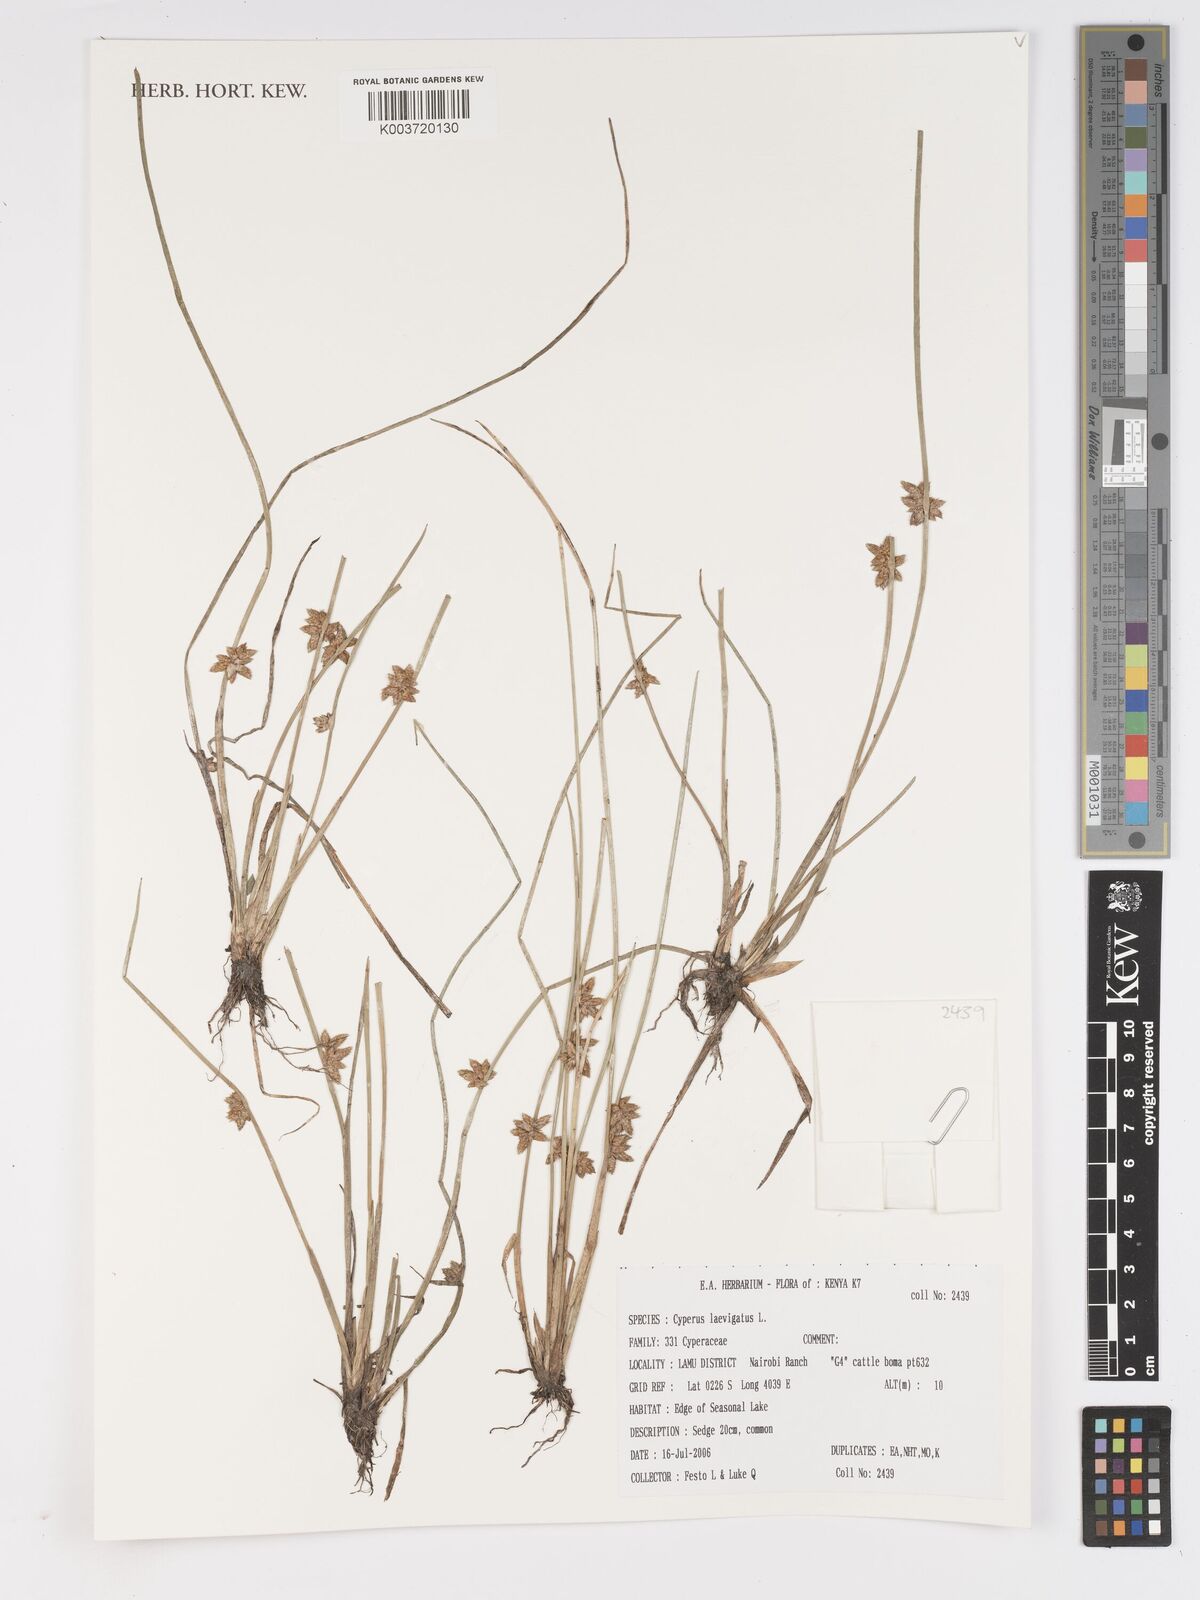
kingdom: Plantae
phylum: Tracheophyta
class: Liliopsida
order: Poales
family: Cyperaceae
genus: Cyperus
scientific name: Cyperus laevigatus
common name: Smooth flat sedge
